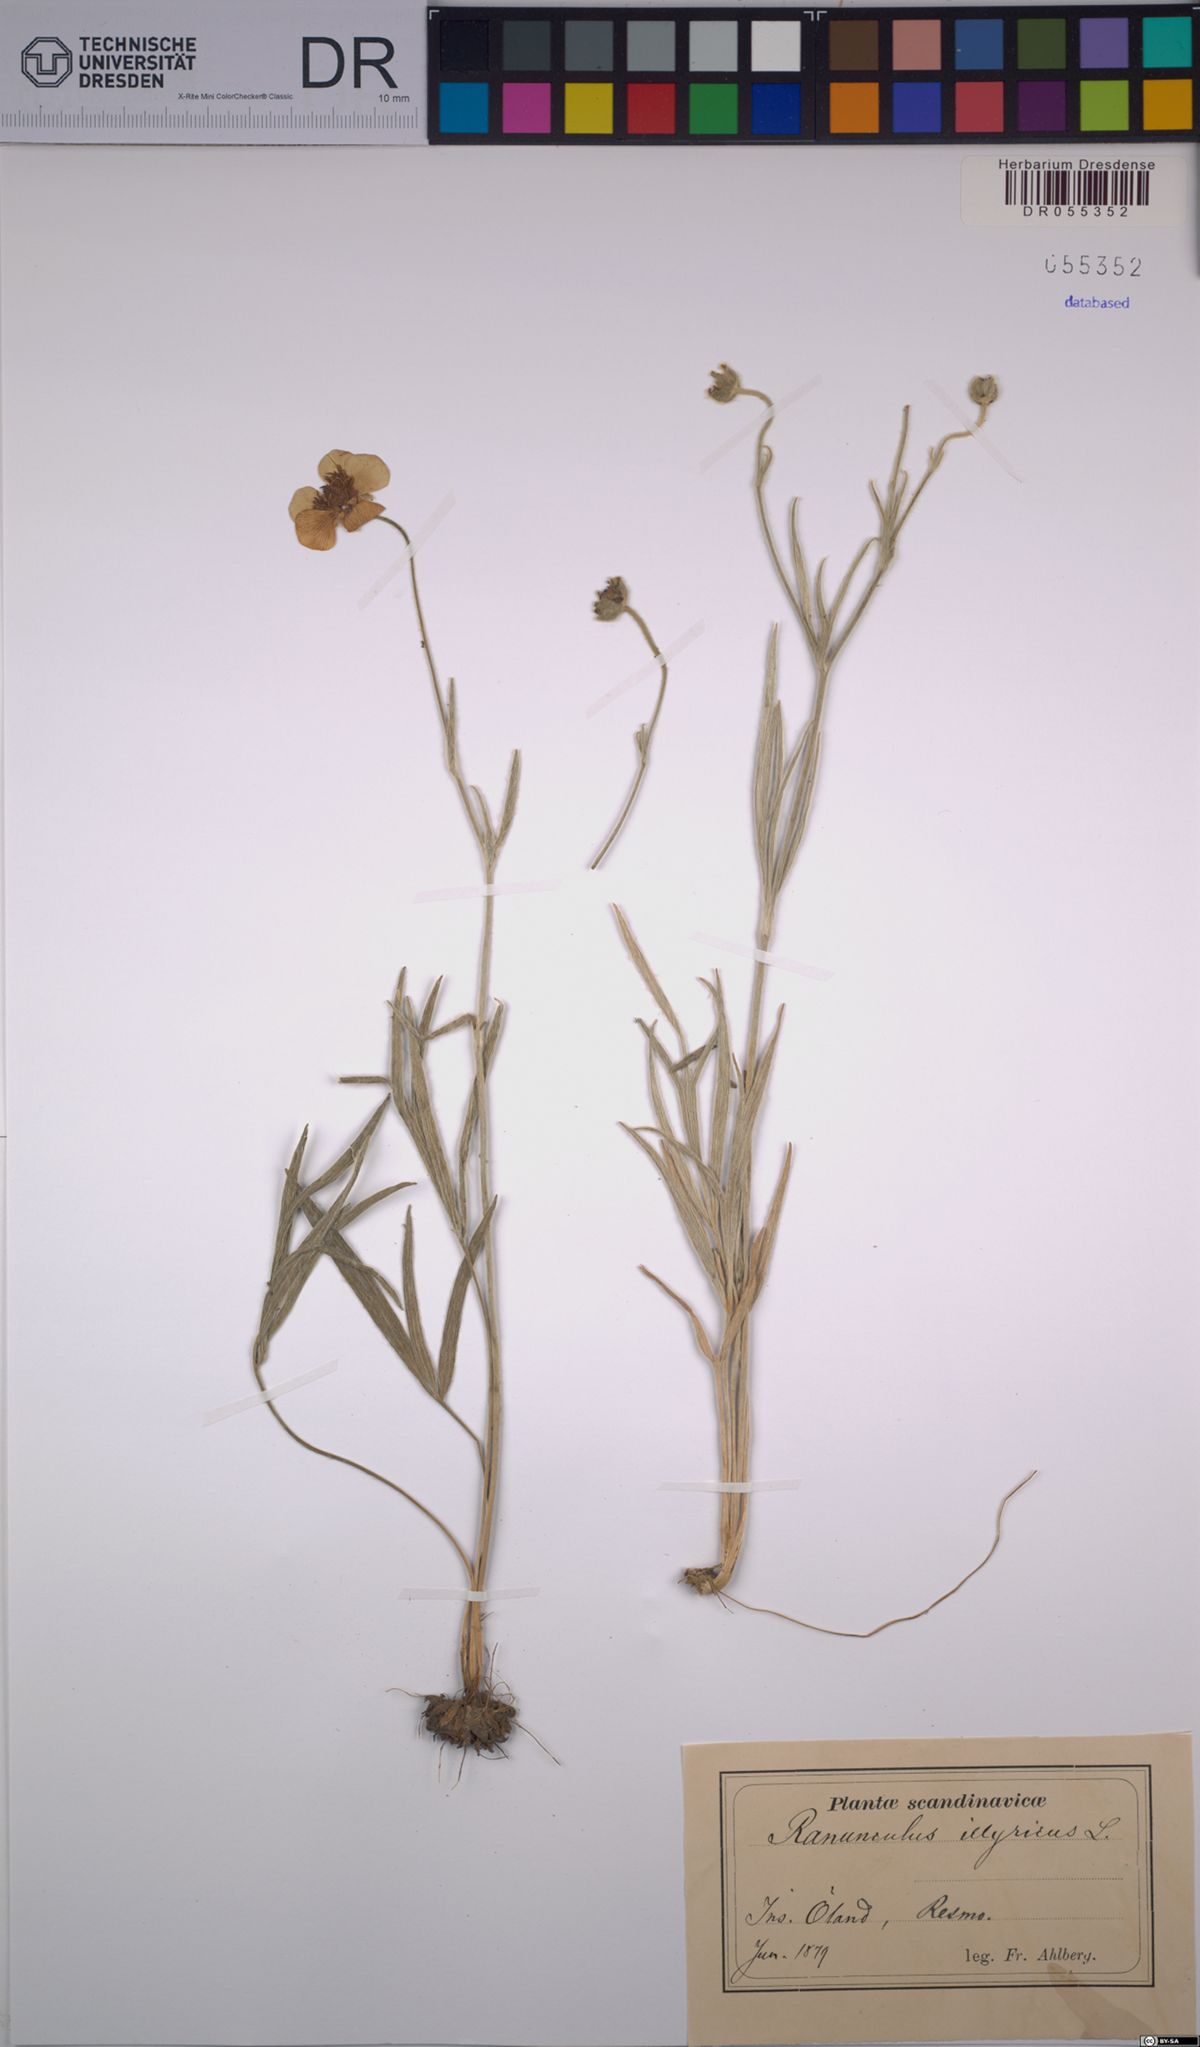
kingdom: Plantae
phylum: Tracheophyta
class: Magnoliopsida
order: Ranunculales
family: Ranunculaceae
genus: Ranunculus
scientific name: Ranunculus illyricus
